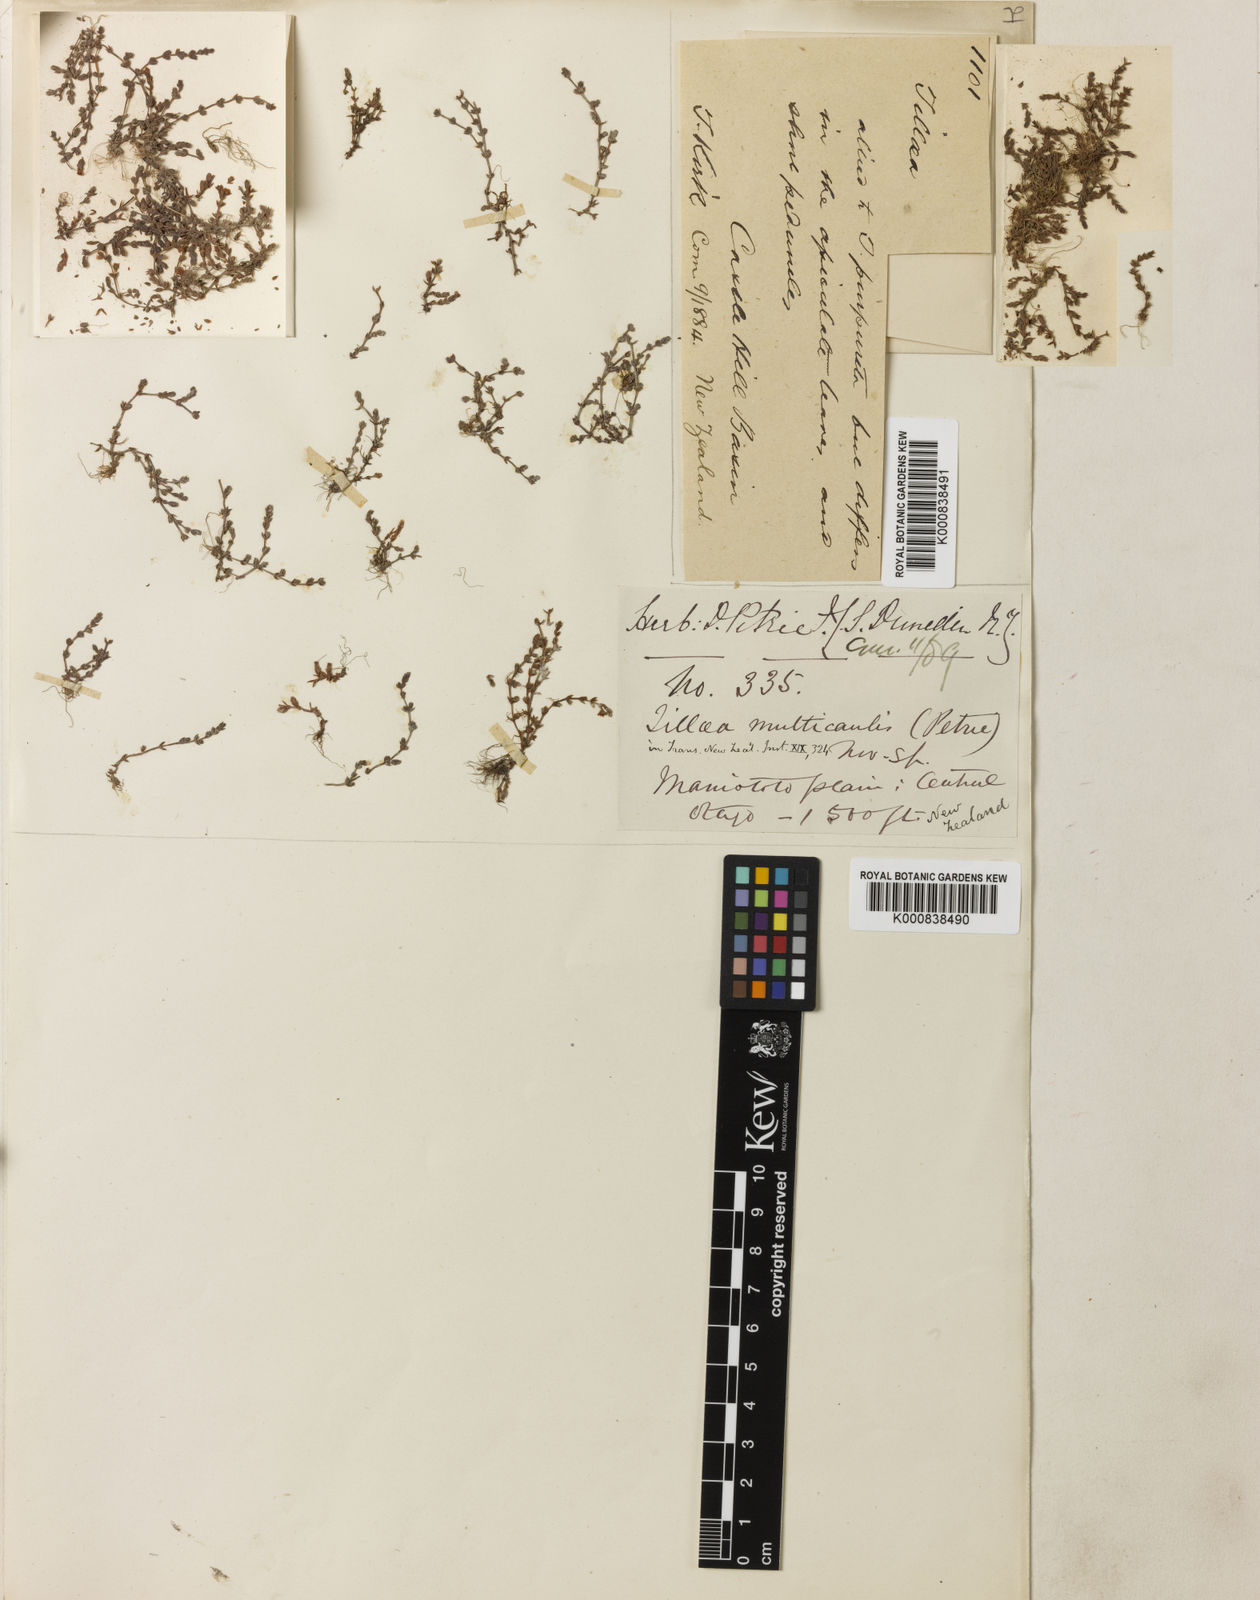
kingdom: Plantae
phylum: Tracheophyta
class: Magnoliopsida
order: Saxifragales
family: Crassulaceae
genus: Crassula
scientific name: Crassula multicaulis
